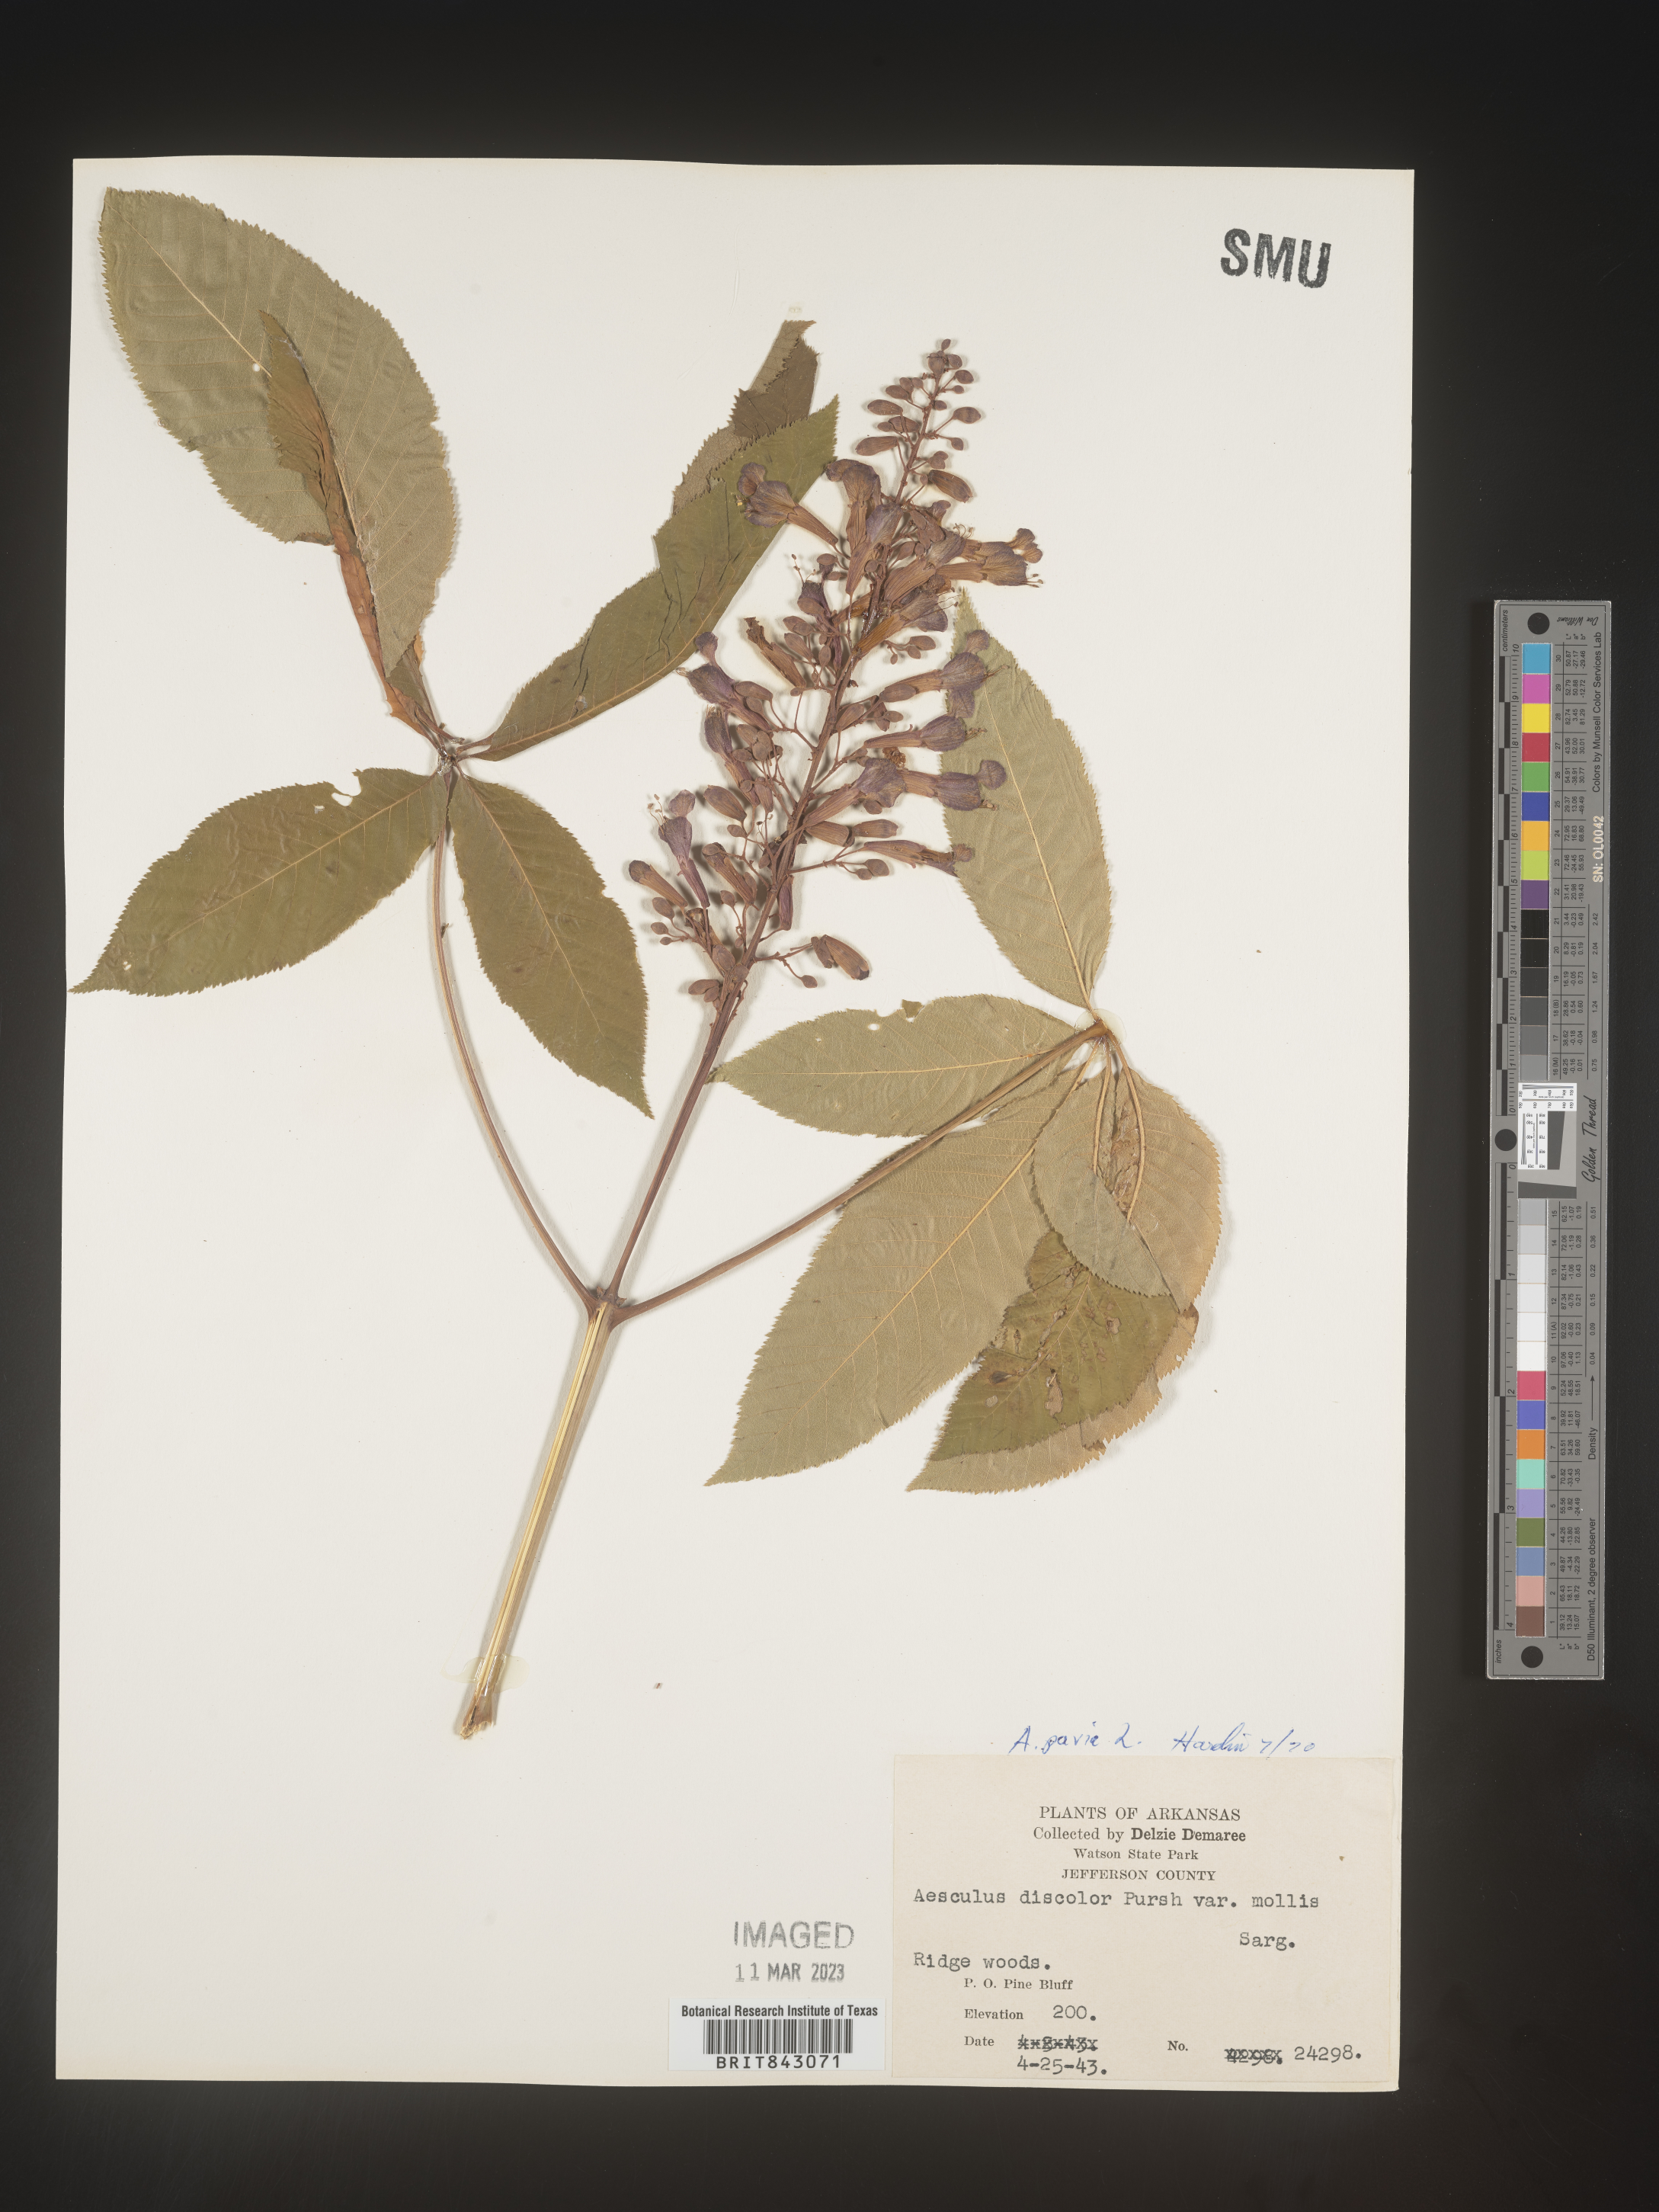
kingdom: Plantae
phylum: Tracheophyta
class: Magnoliopsida
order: Sapindales
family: Sapindaceae
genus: Aesculus
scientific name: Aesculus pavia
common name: Red buckeye
